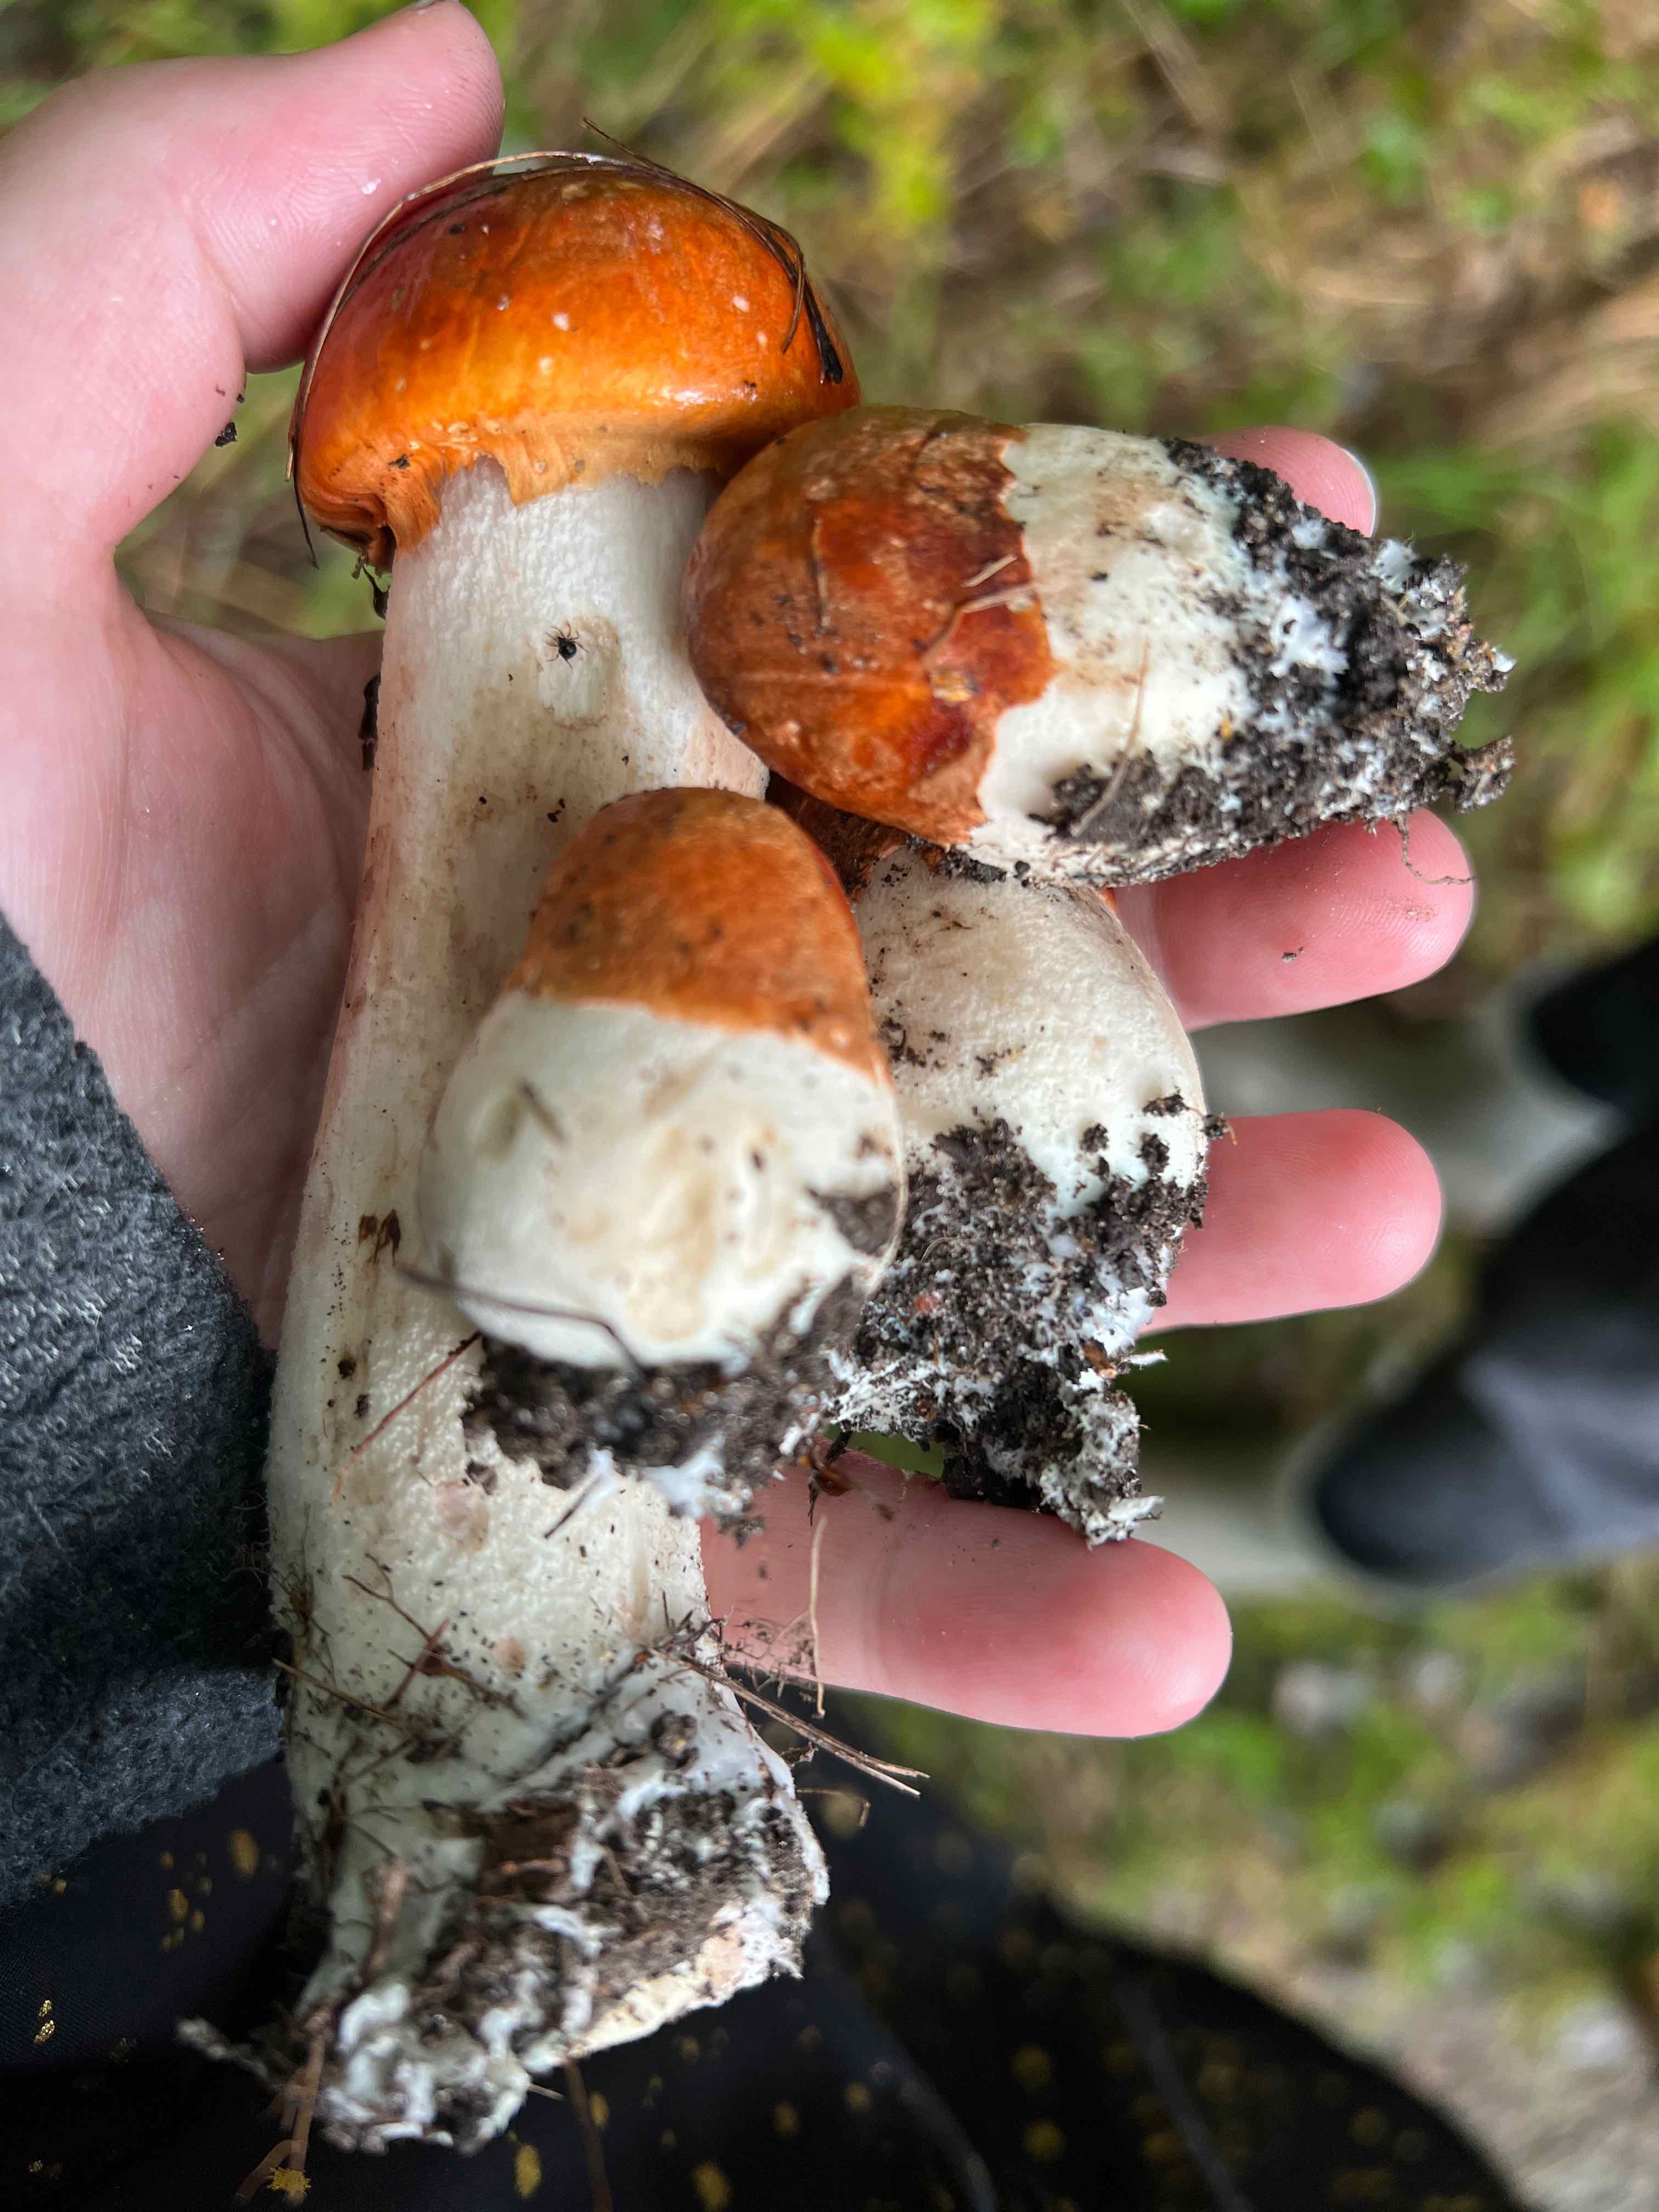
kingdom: Fungi
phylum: Basidiomycota
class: Agaricomycetes
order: Boletales
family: Boletaceae
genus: Leccinum
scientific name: Leccinum albostipitatum
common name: aspe-skælrørhat
